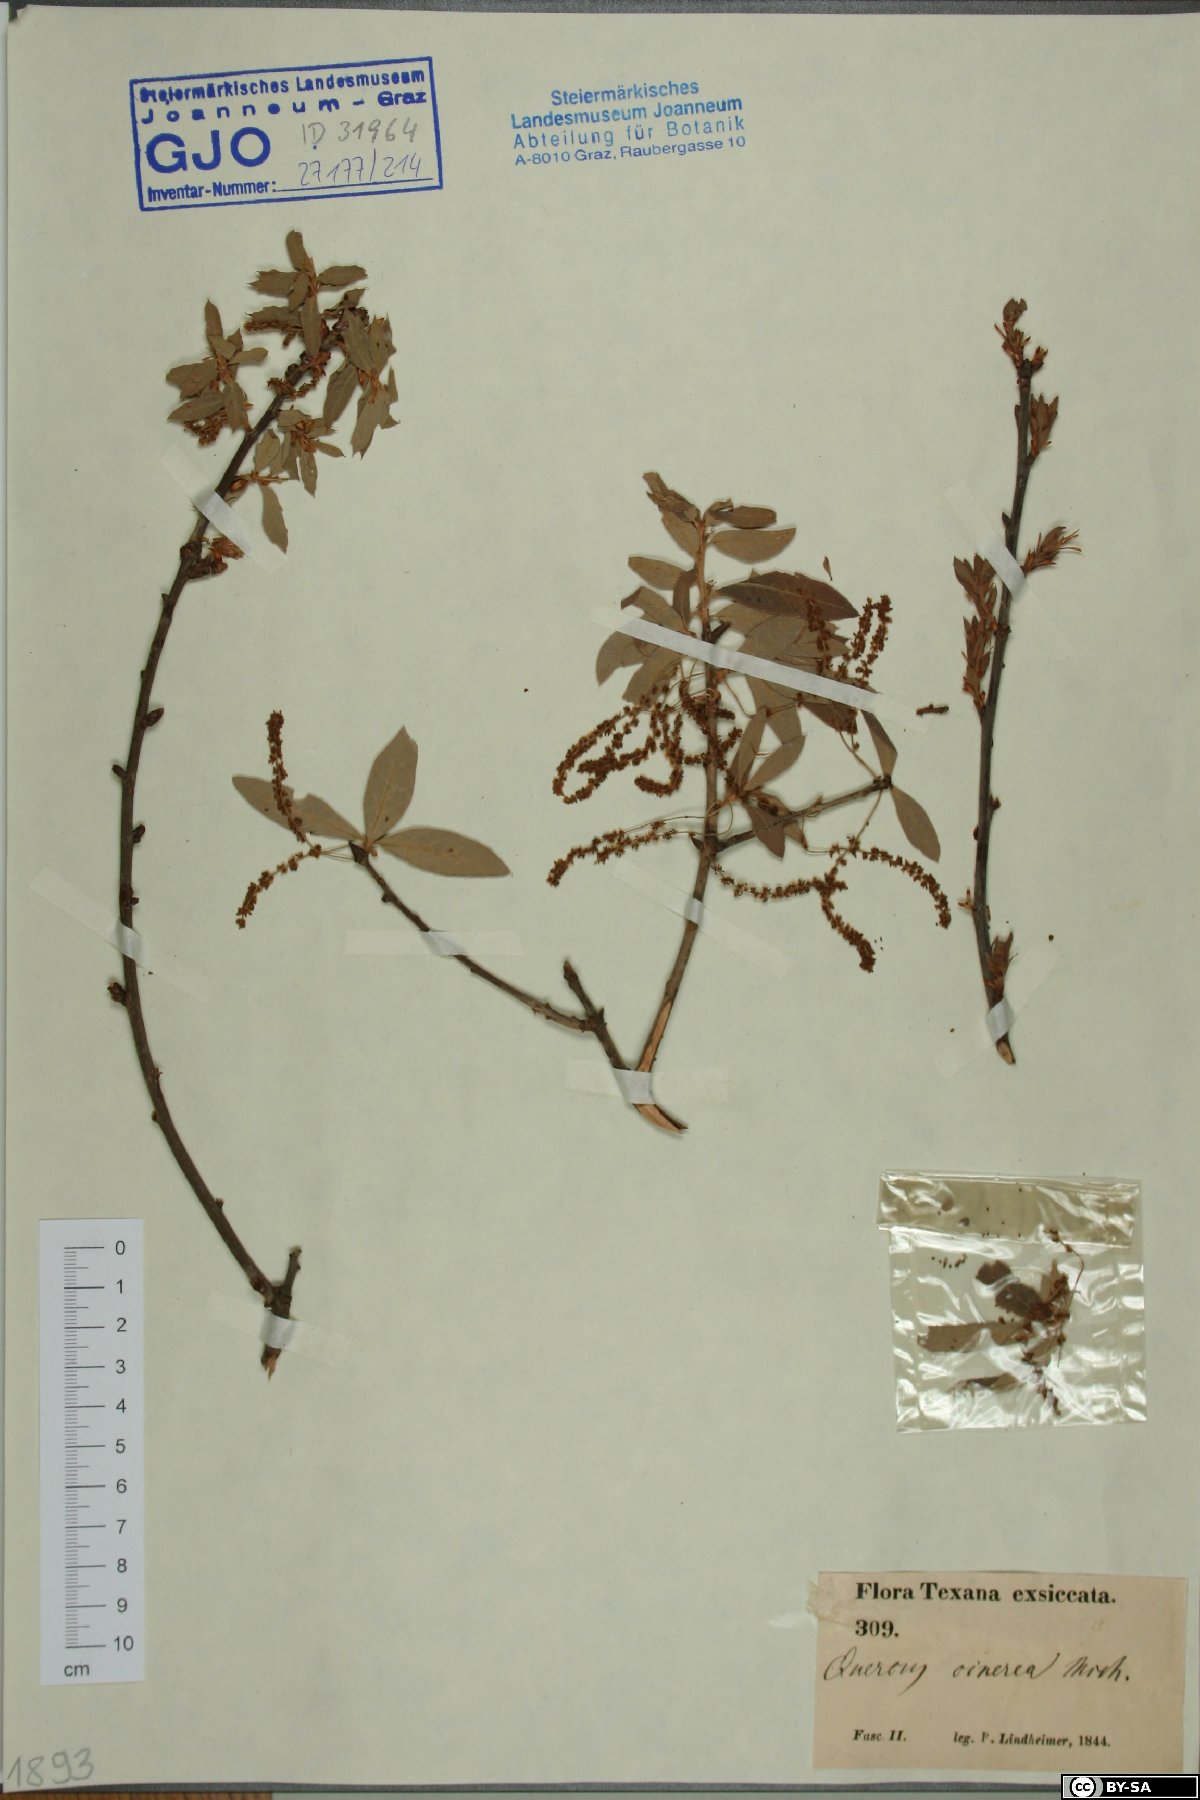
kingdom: Plantae
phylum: Tracheophyta
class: Magnoliopsida
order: Fagales
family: Fagaceae
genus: Quercus
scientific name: Quercus incana
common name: Bluejack oak
